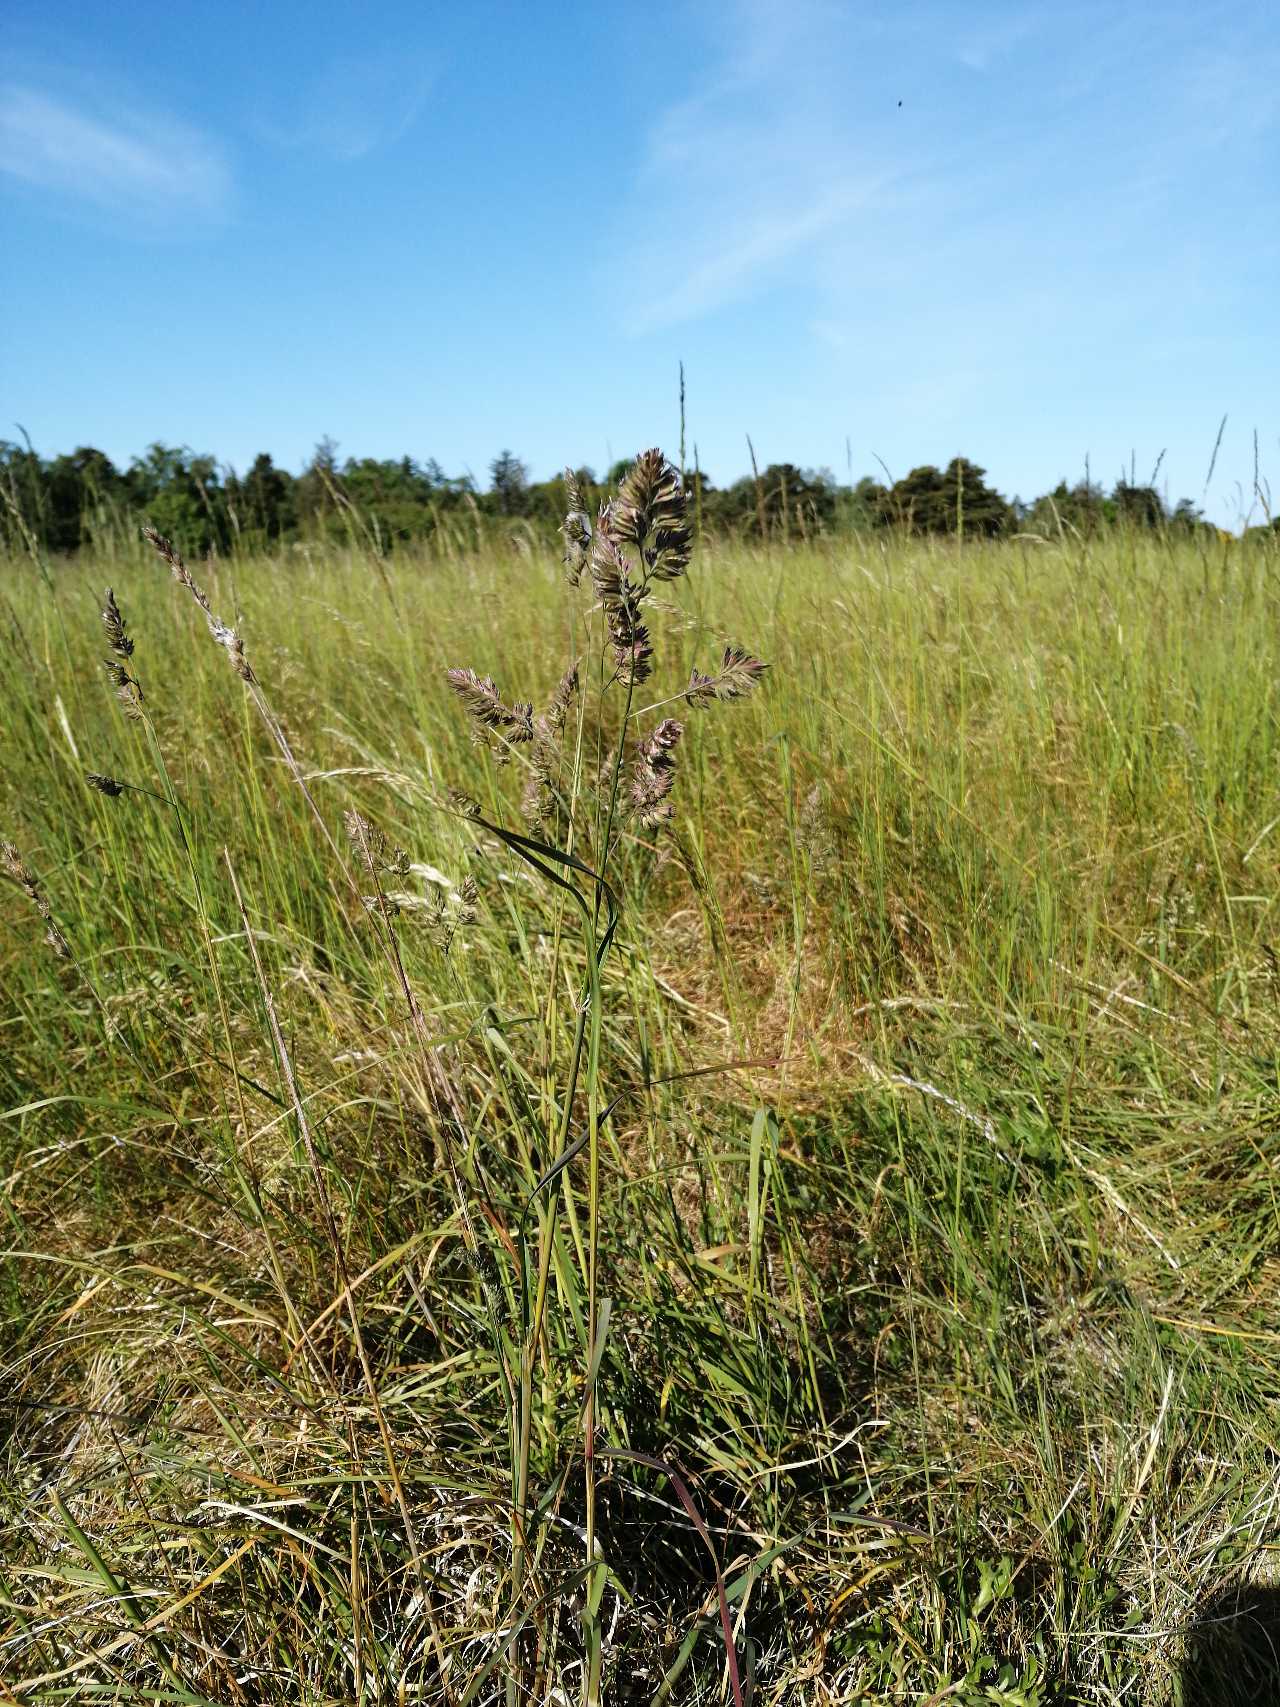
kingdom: Plantae
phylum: Tracheophyta
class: Liliopsida
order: Poales
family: Poaceae
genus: Dactylis
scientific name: Dactylis glomerata
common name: Almindelig hundegræs
